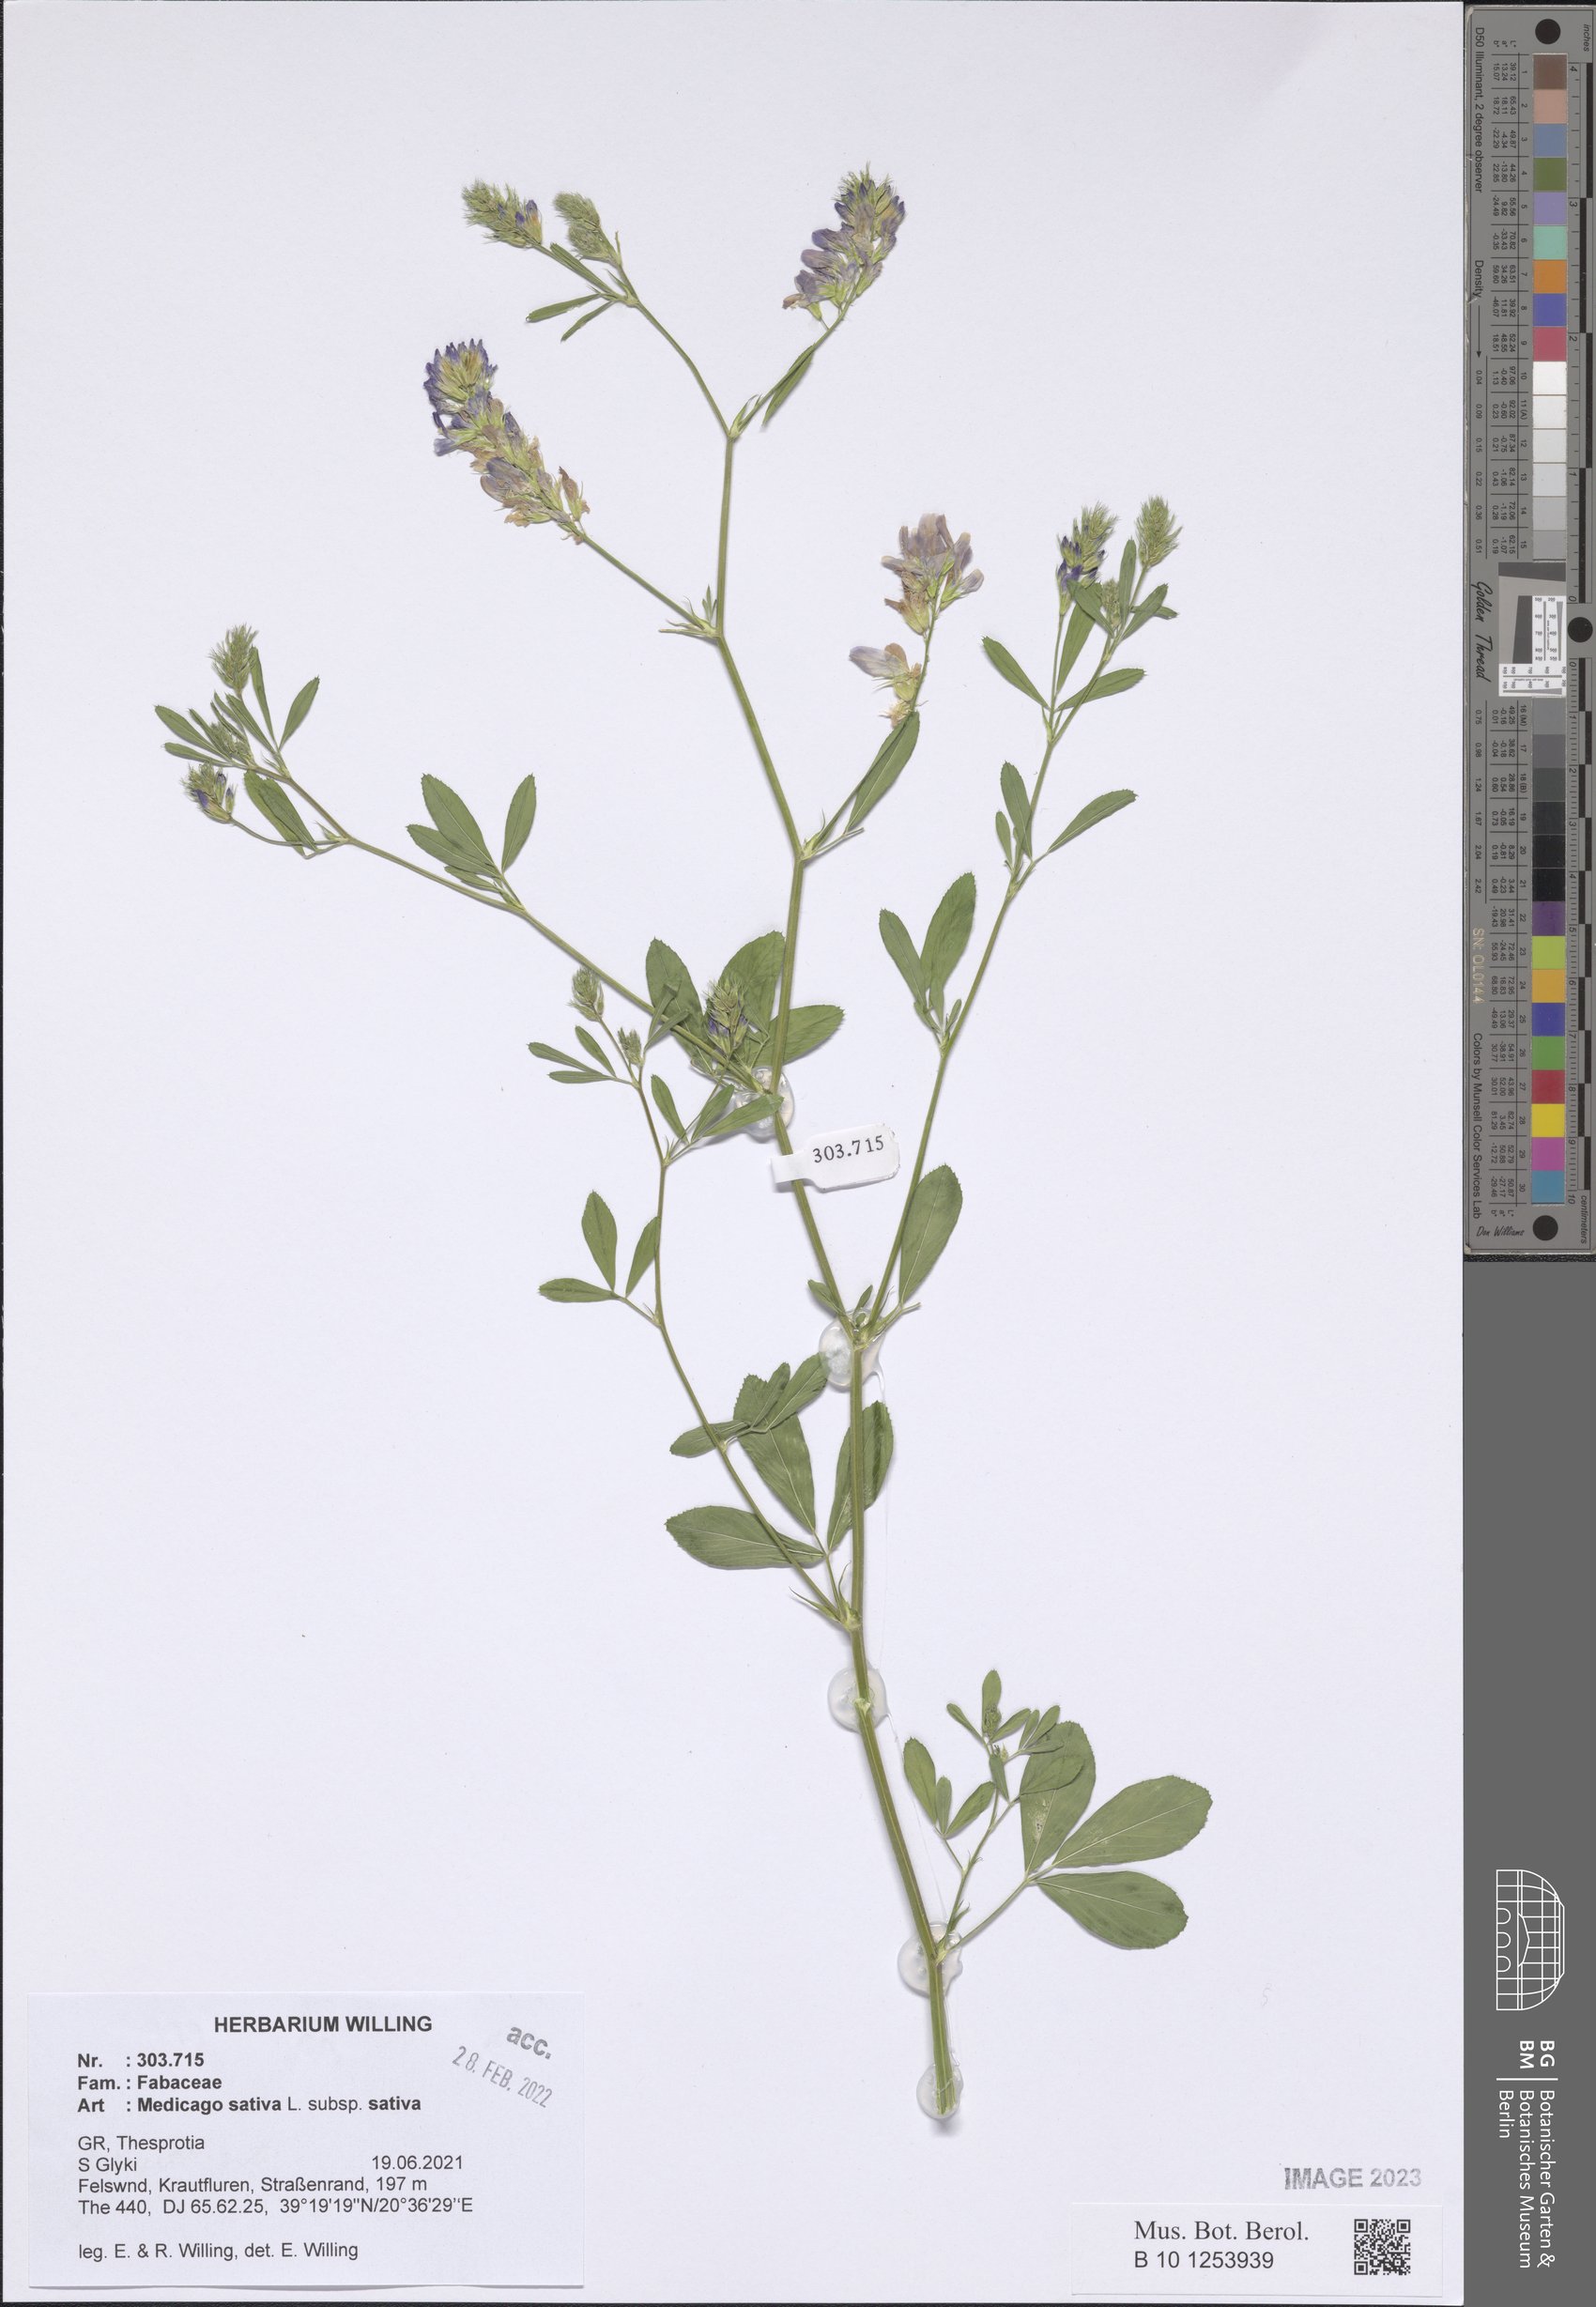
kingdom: Plantae
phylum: Tracheophyta
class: Magnoliopsida
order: Fabales
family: Fabaceae
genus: Medicago
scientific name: Medicago sativa
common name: Alfalfa
